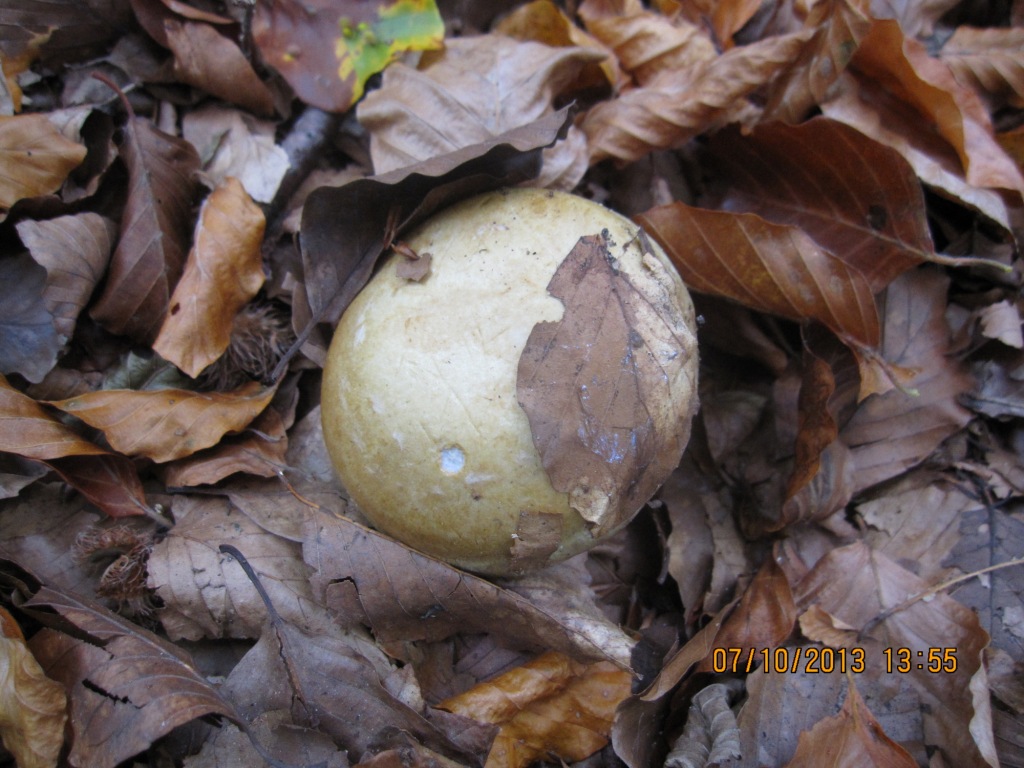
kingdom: Fungi
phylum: Basidiomycota
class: Agaricomycetes
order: Agaricales
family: Cortinariaceae
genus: Cortinarius
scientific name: Cortinarius anserinus
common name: bøge-slørhat
